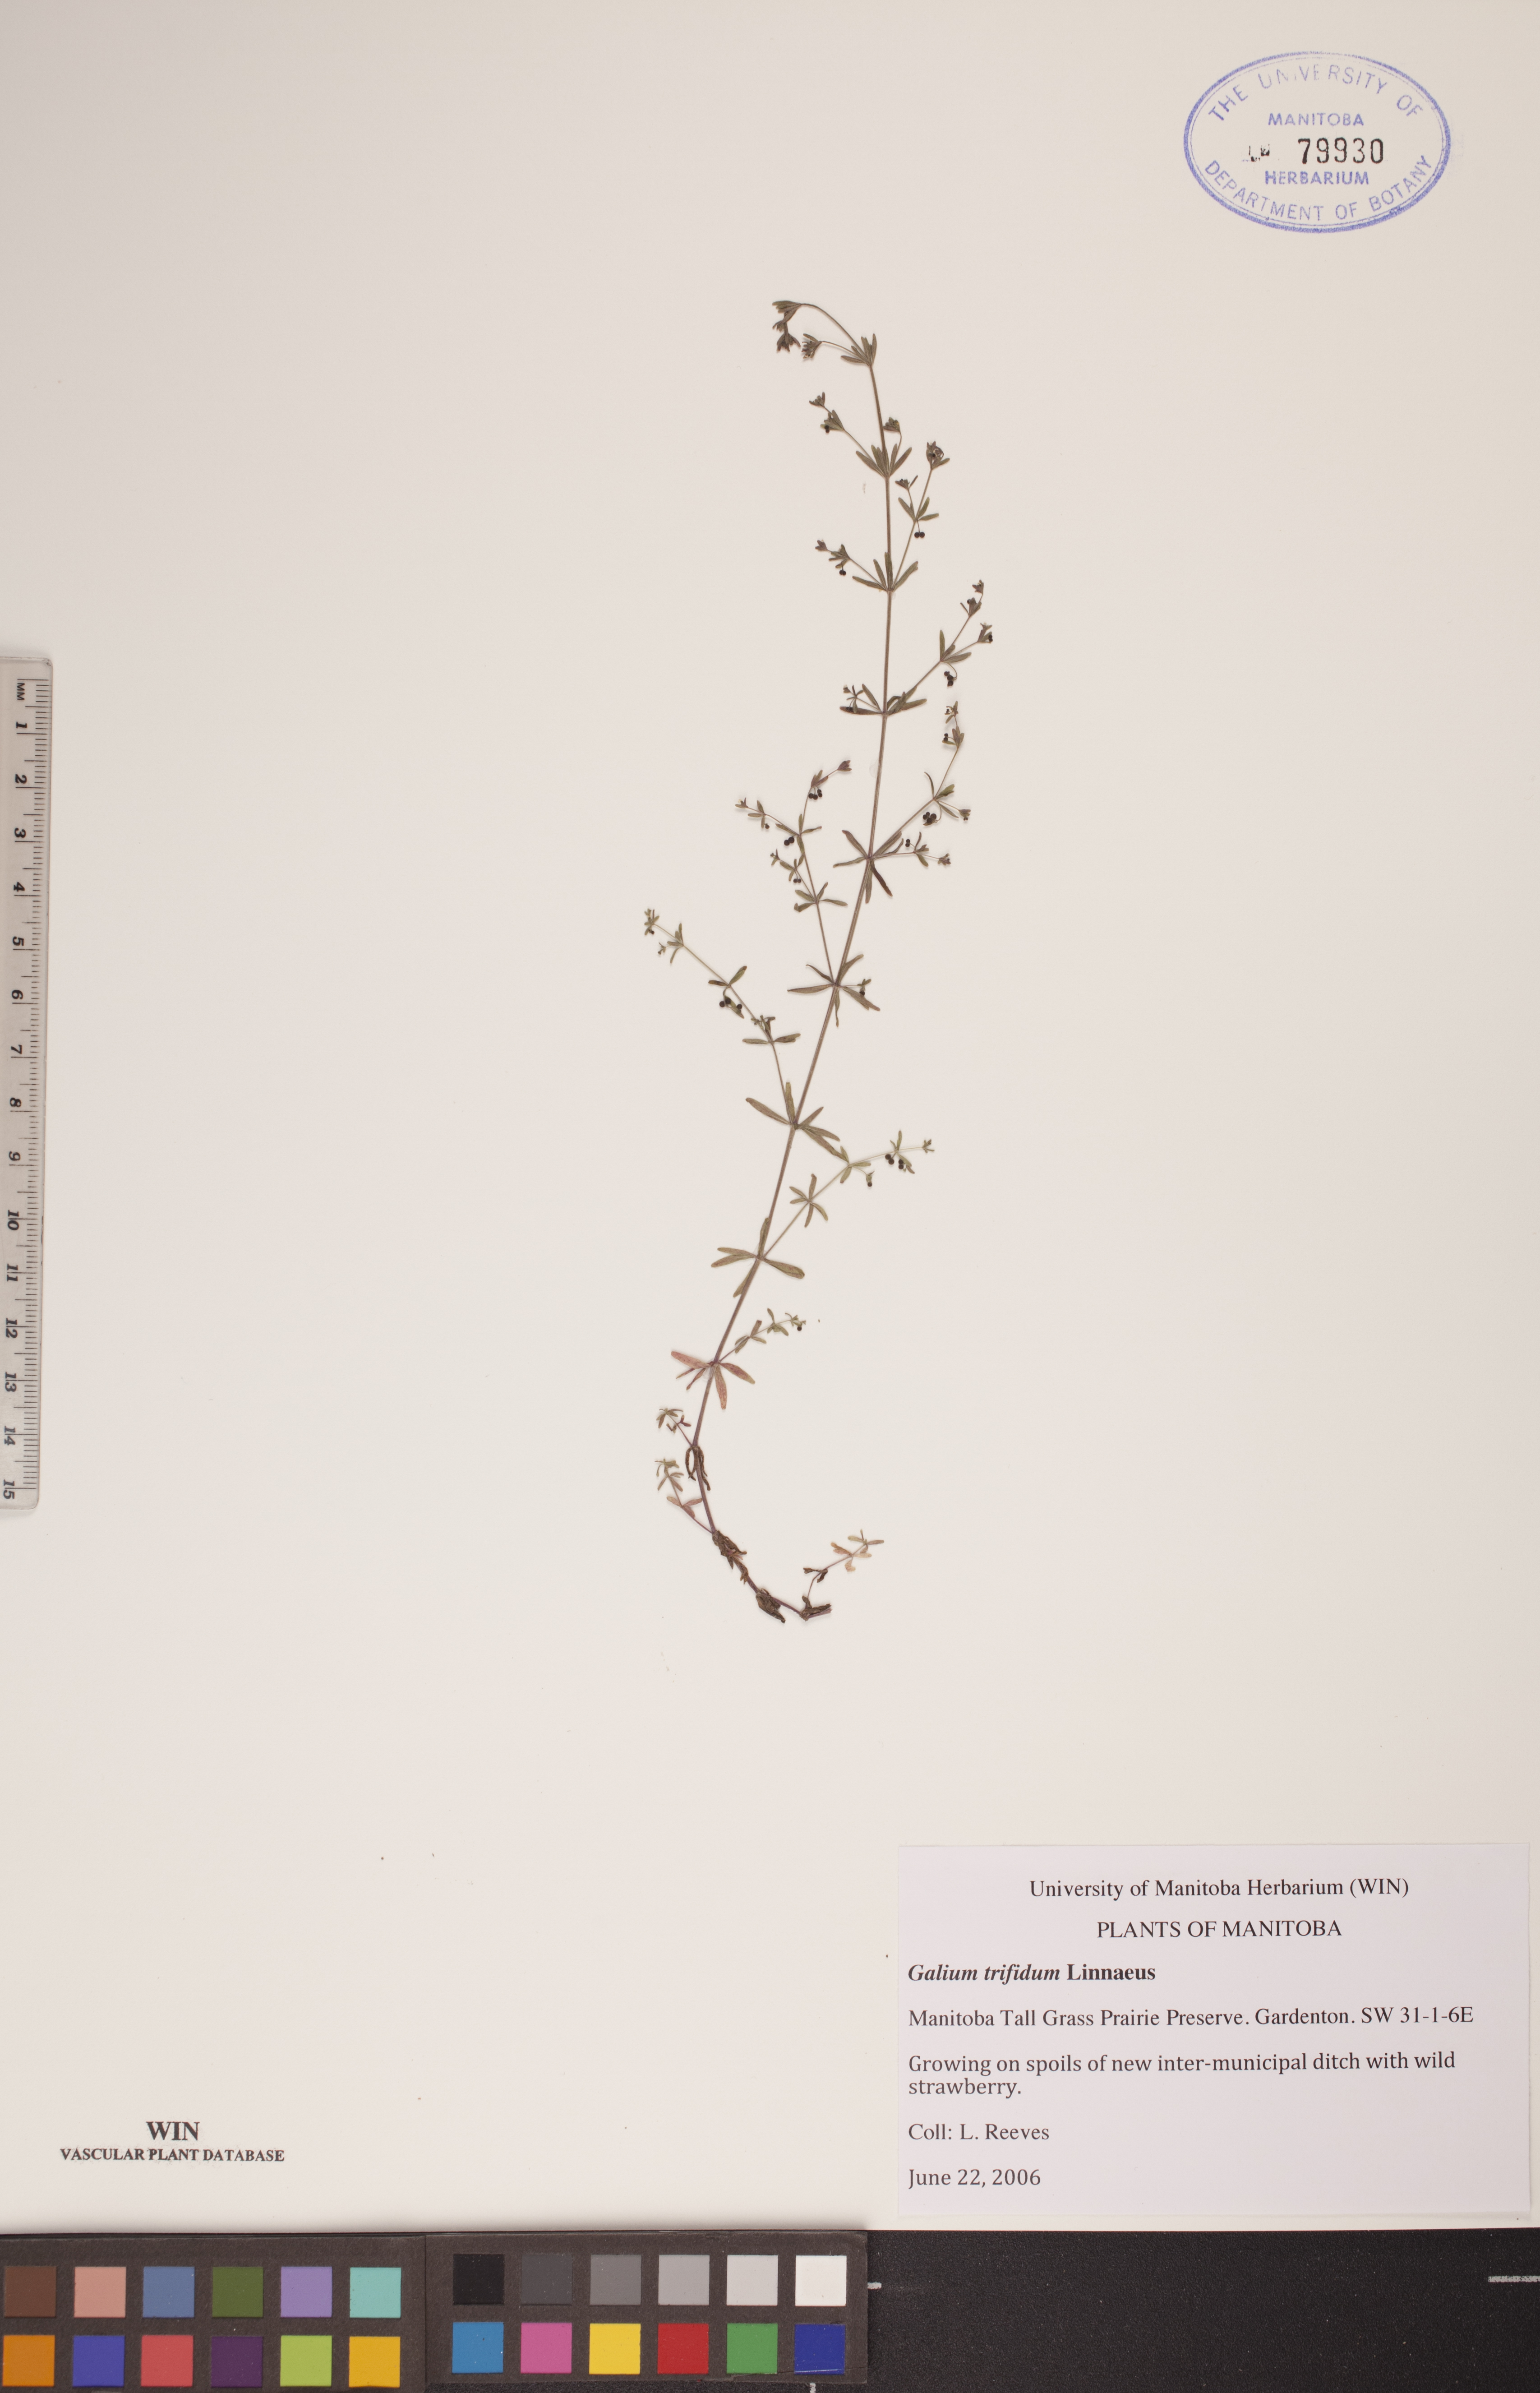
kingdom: Plantae
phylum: Tracheophyta
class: Magnoliopsida
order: Gentianales
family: Rubiaceae
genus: Galium
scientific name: Galium domingense
